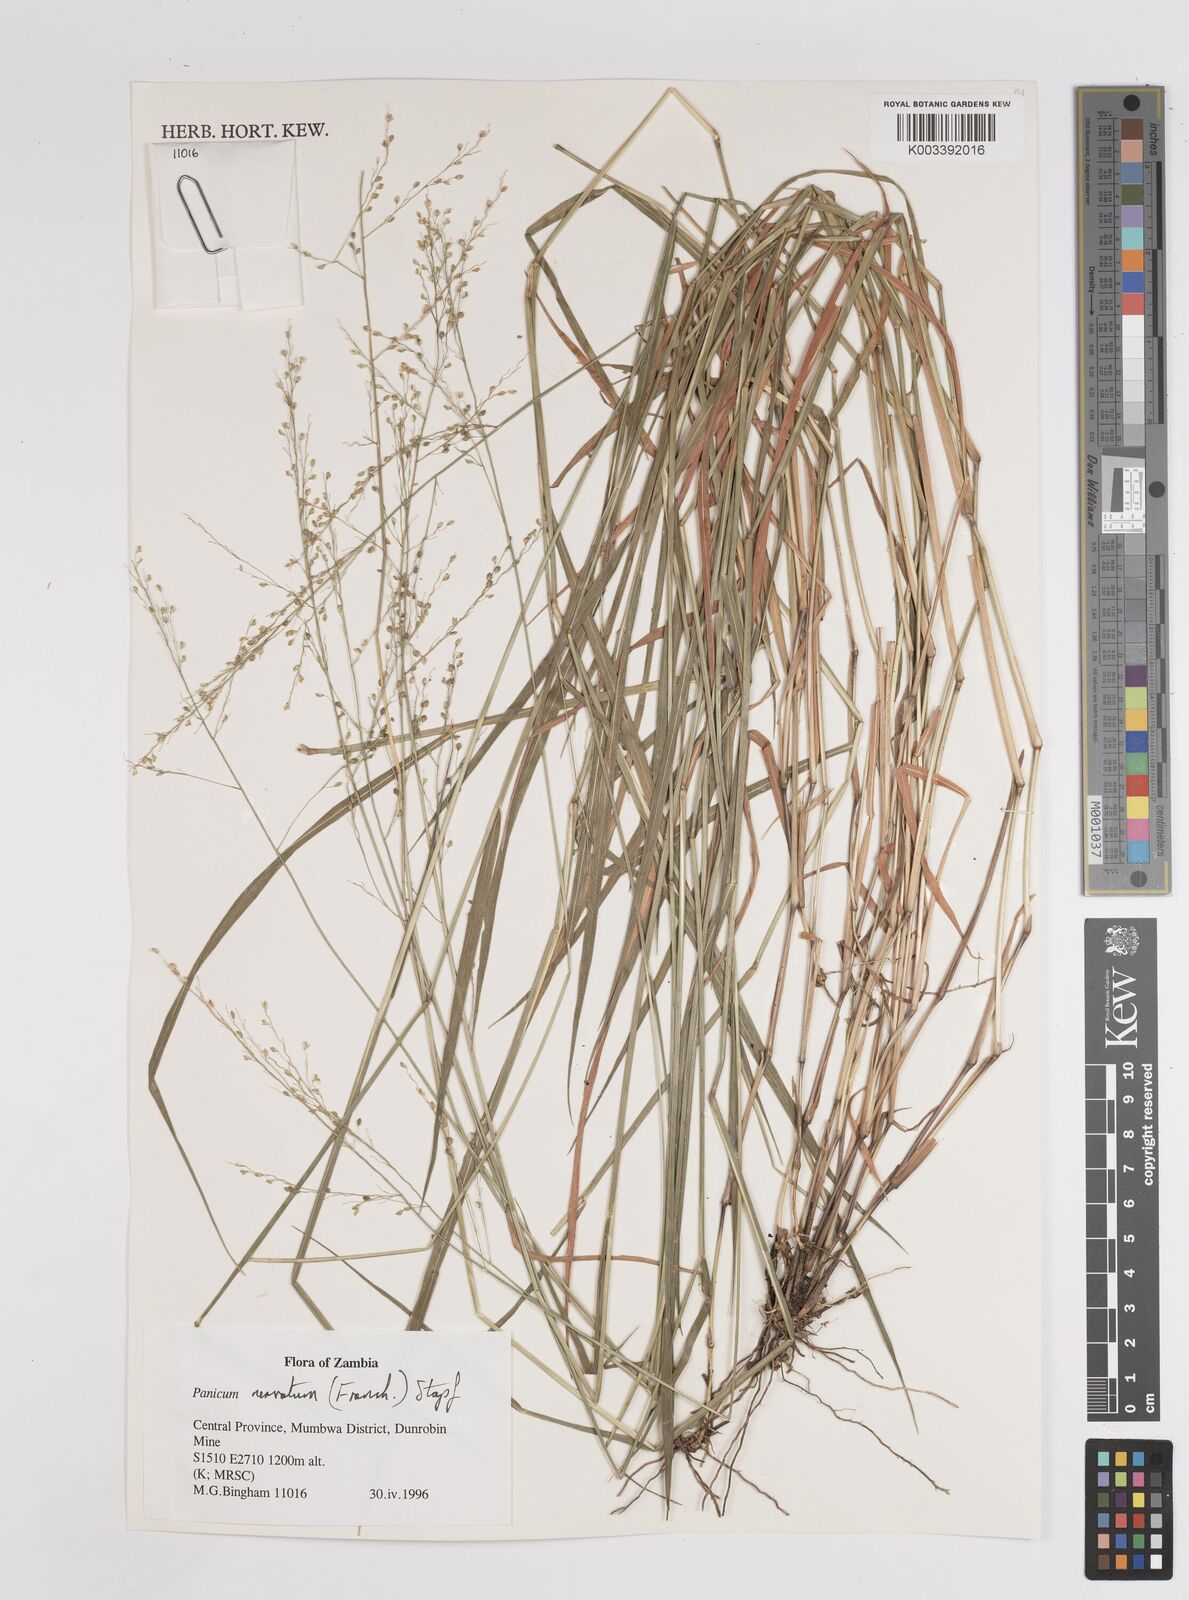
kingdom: Plantae
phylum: Tracheophyta
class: Liliopsida
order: Poales
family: Poaceae
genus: Trichanthecium
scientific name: Trichanthecium nervatum
